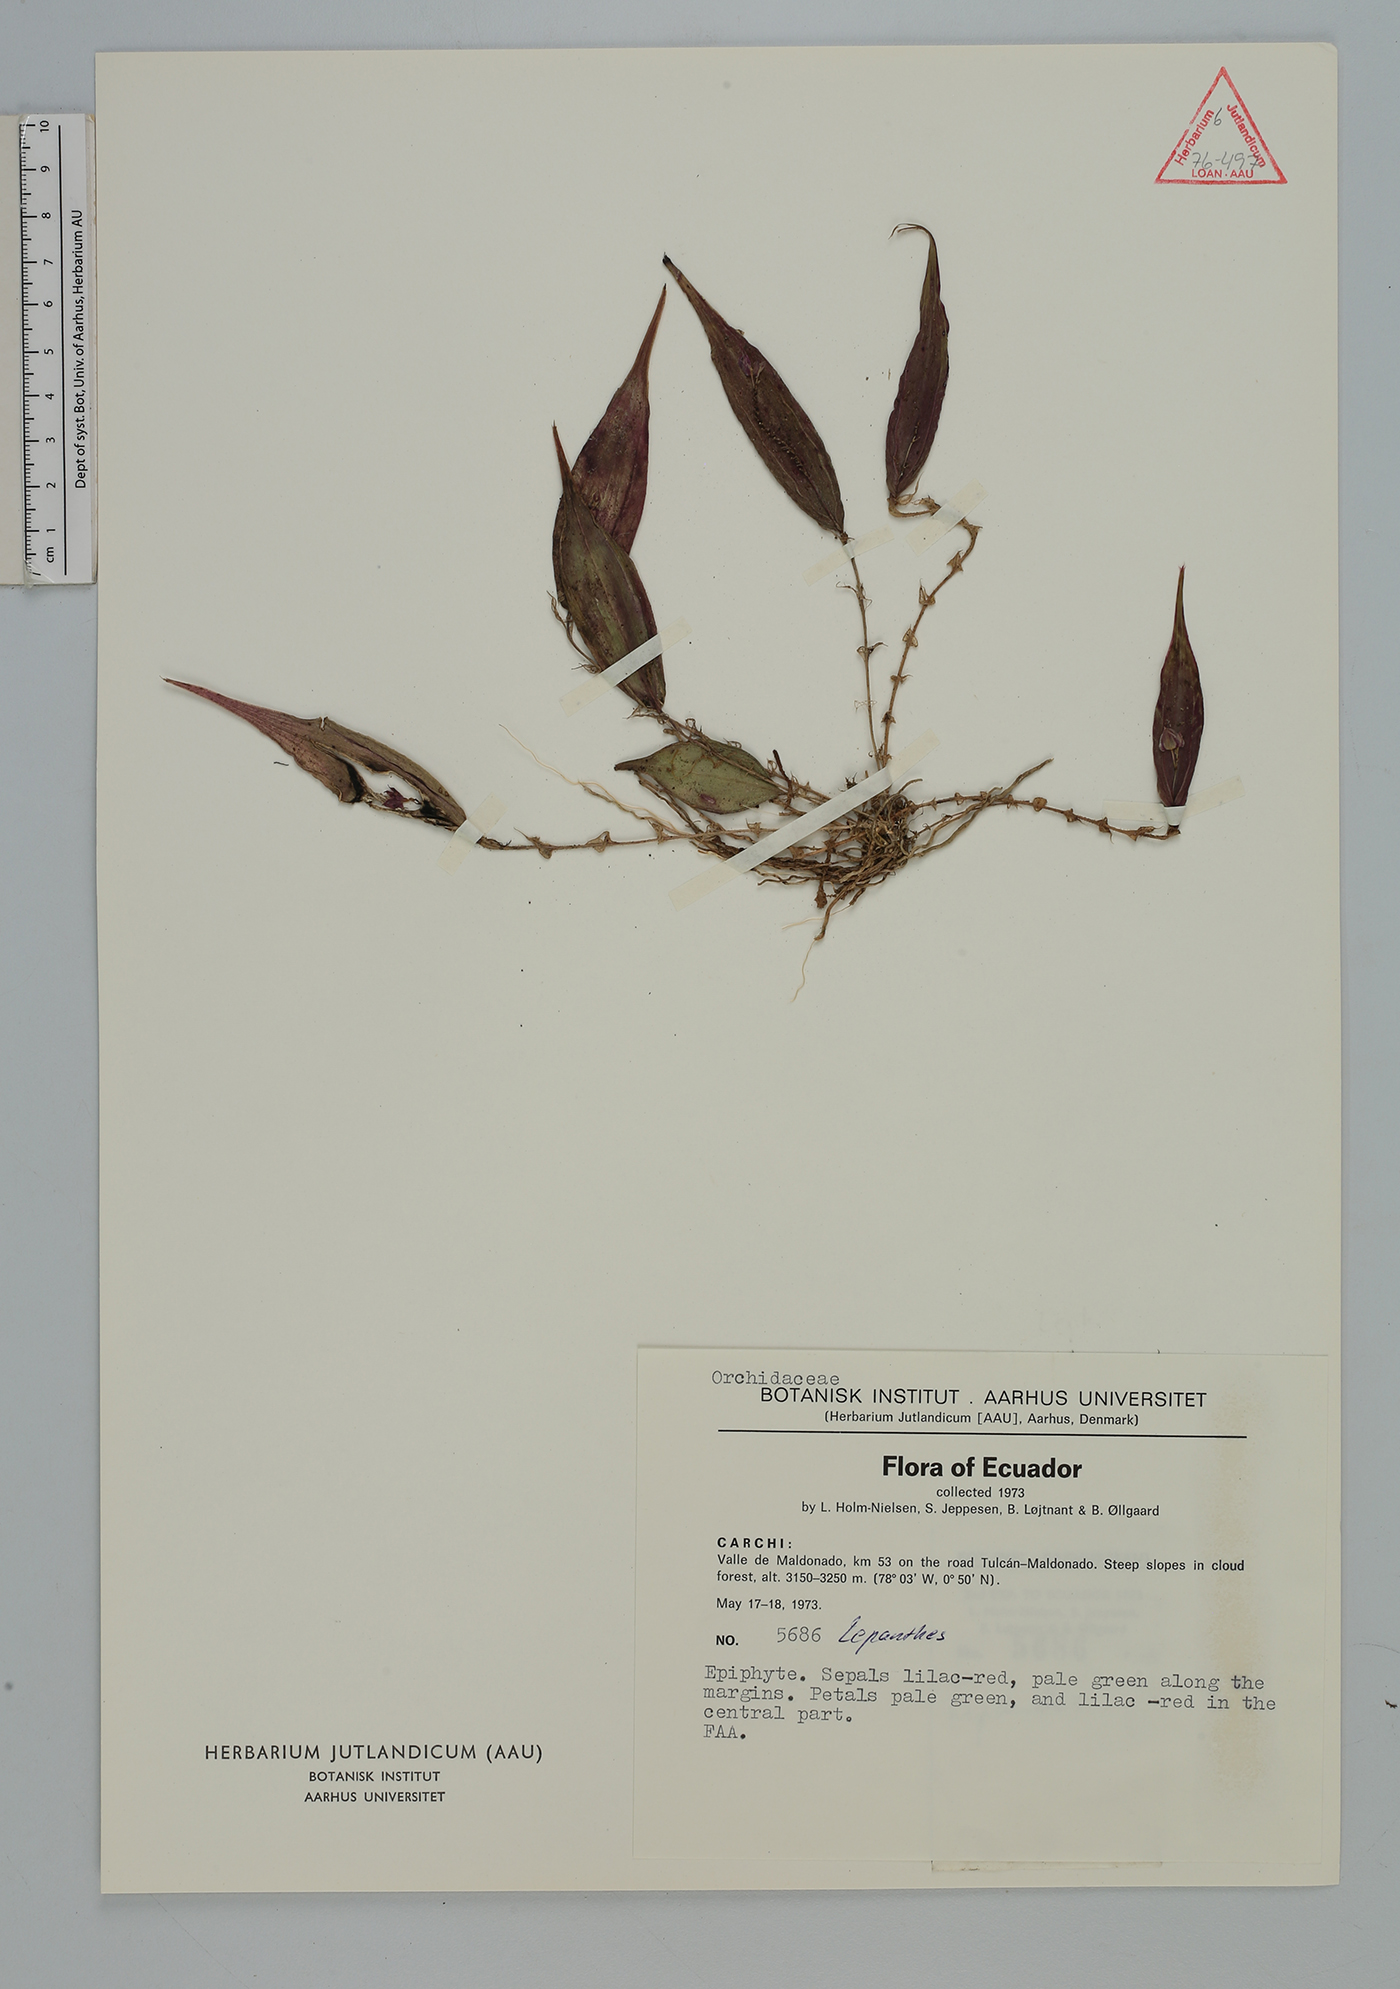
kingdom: Plantae
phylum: Tracheophyta
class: Liliopsida
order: Asparagales
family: Orchidaceae
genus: Lepanthes
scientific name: Lepanthes
